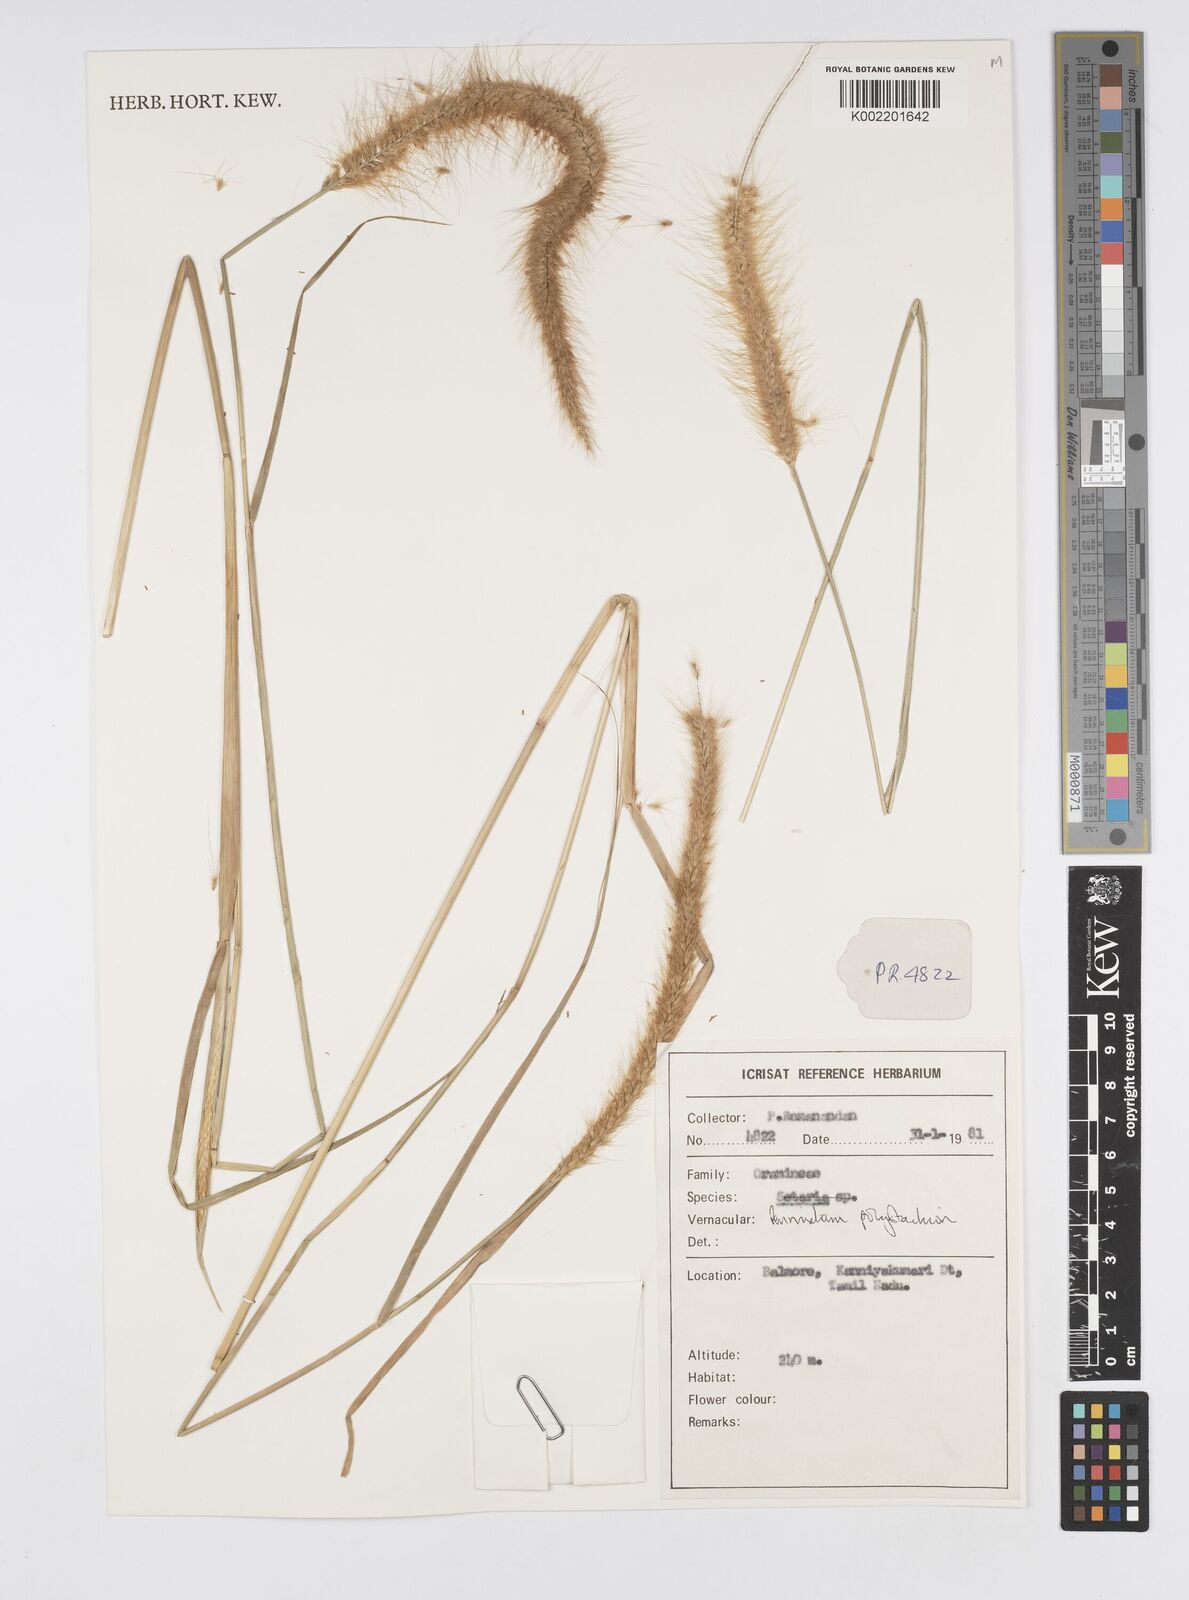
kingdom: Plantae
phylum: Tracheophyta
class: Liliopsida
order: Poales
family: Poaceae
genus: Setaria
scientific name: Setaria parviflora
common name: Knotroot bristle-grass
